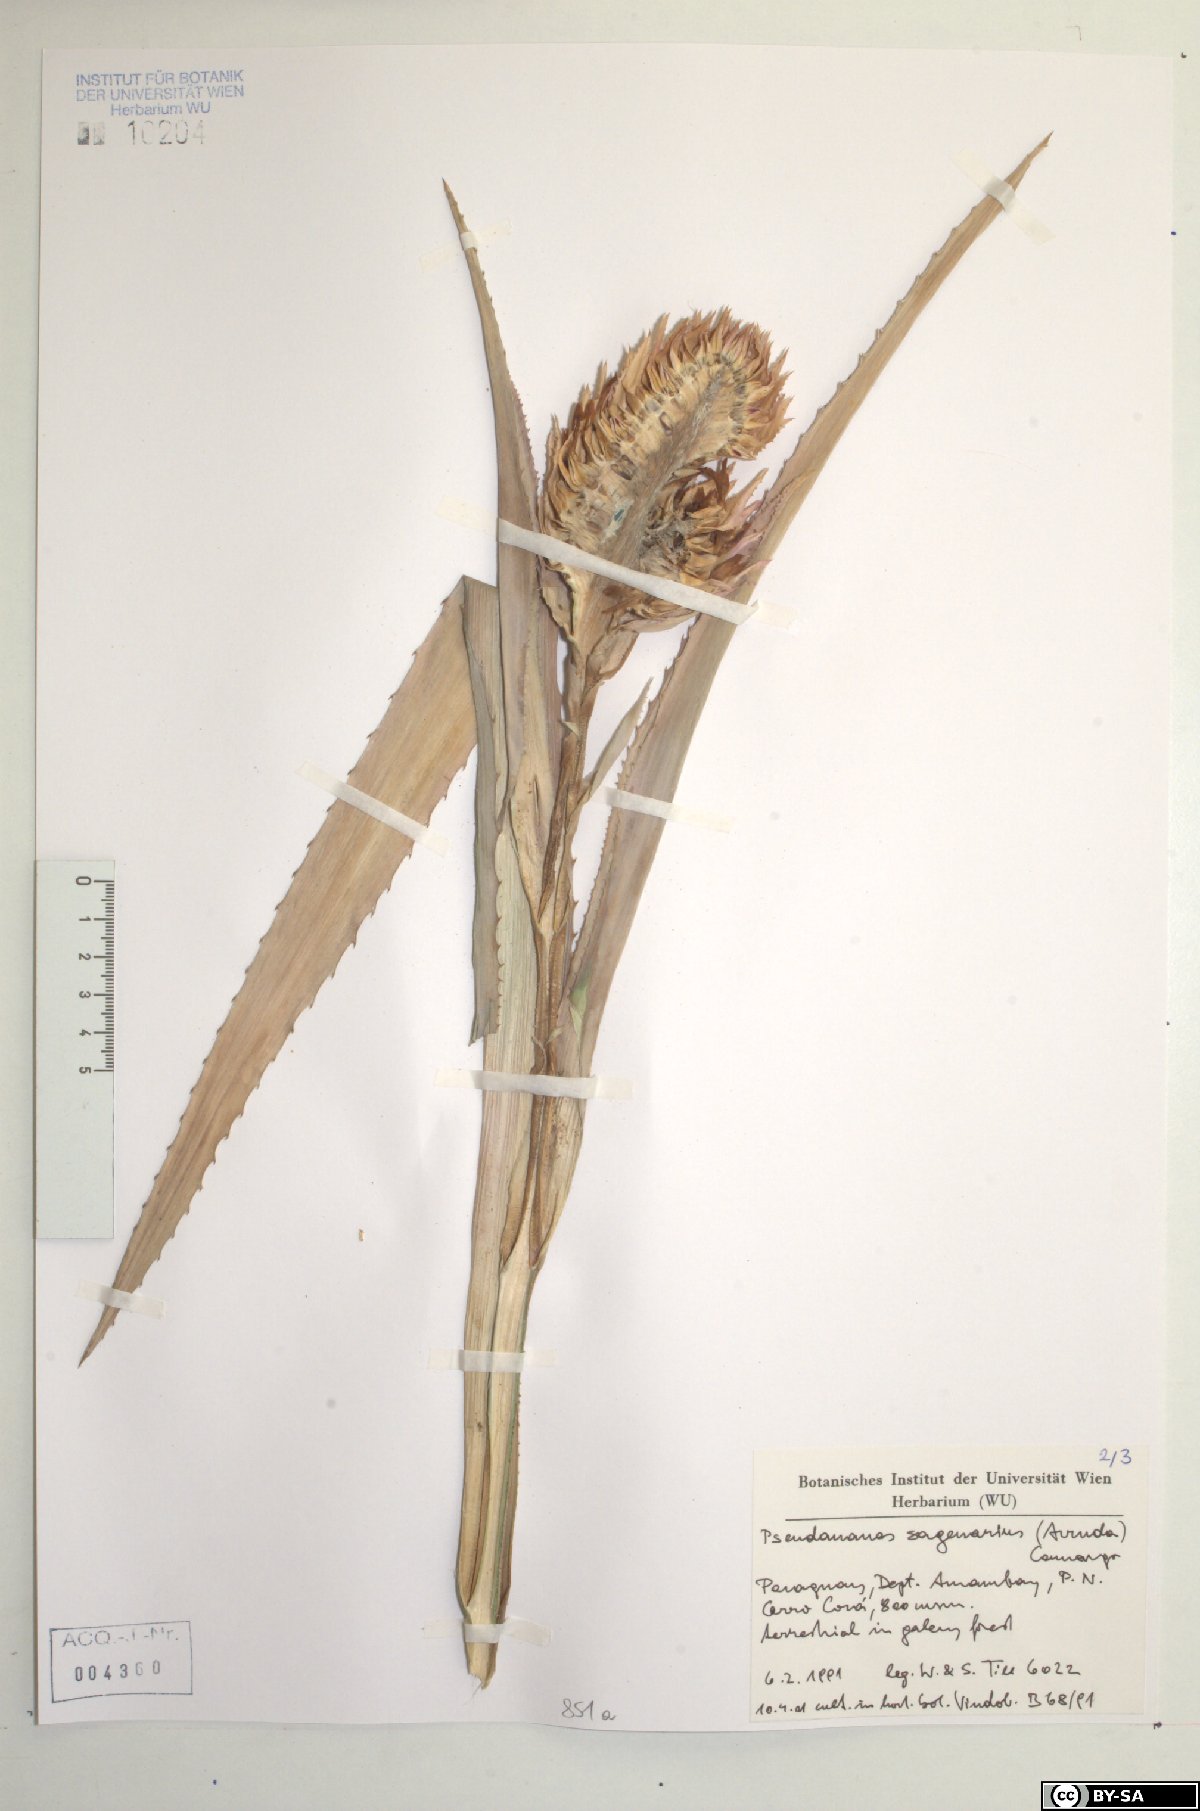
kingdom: Plantae
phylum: Tracheophyta
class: Liliopsida
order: Poales
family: Bromeliaceae
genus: Ananas
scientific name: Ananas comosus
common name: Pineapple
